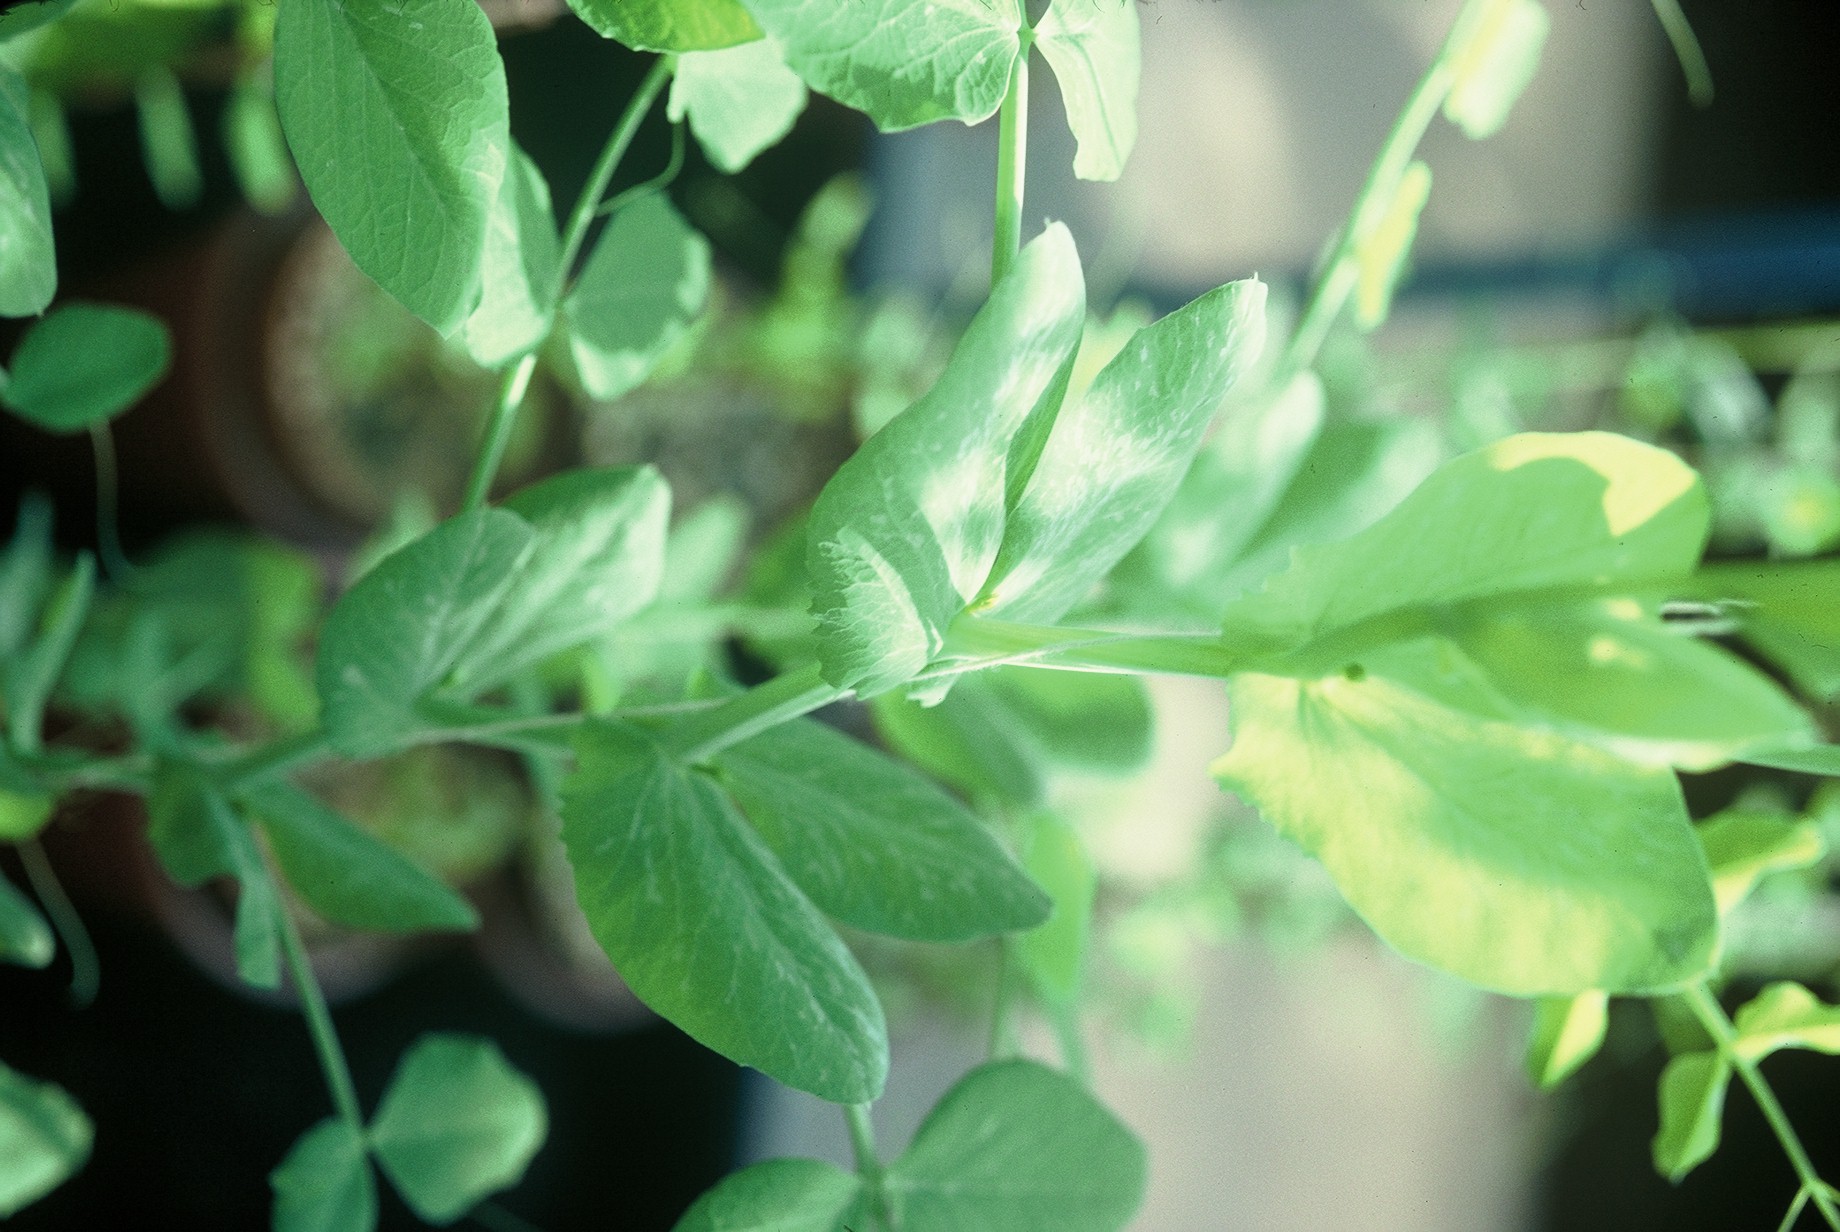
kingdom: Plantae
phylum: Tracheophyta
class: Magnoliopsida
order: Fabales
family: Fabaceae
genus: Lathyrus
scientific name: Lathyrus oleraceus
